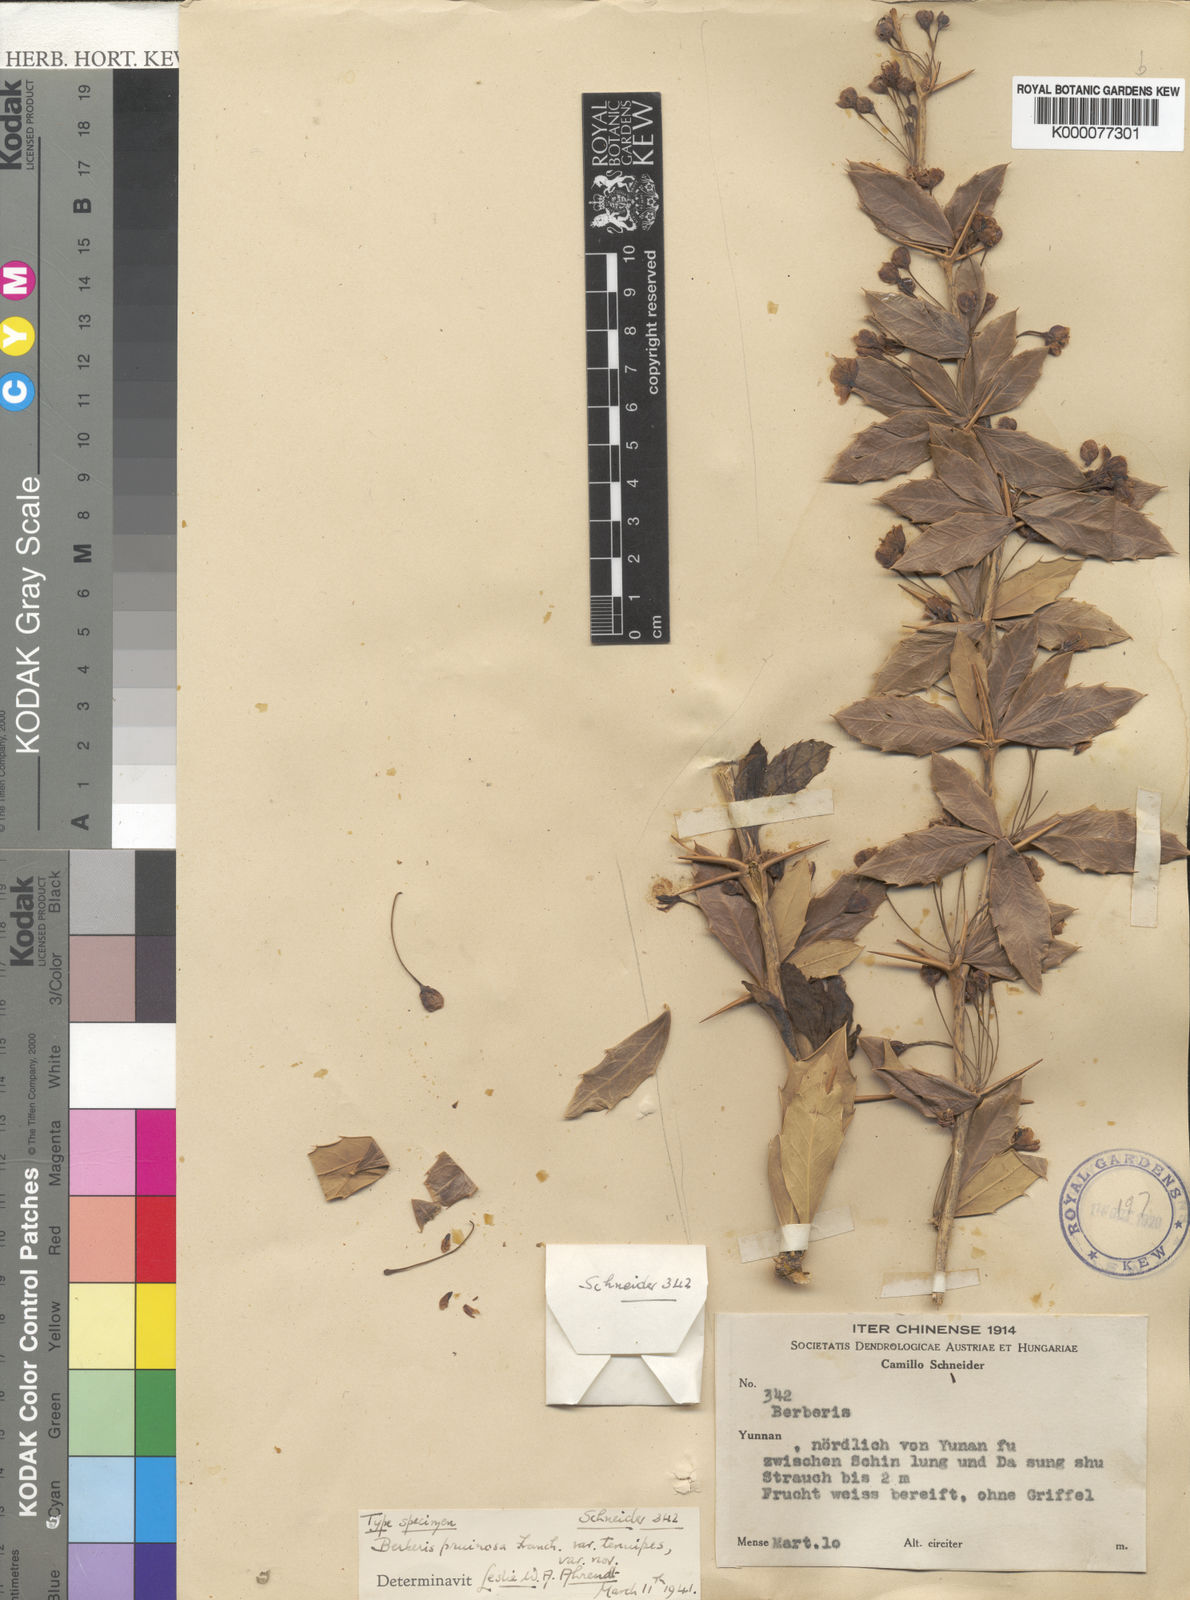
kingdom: Plantae
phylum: Tracheophyta
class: Magnoliopsida
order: Ranunculales
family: Berberidaceae
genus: Berberis
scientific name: Berberis pruinosa
